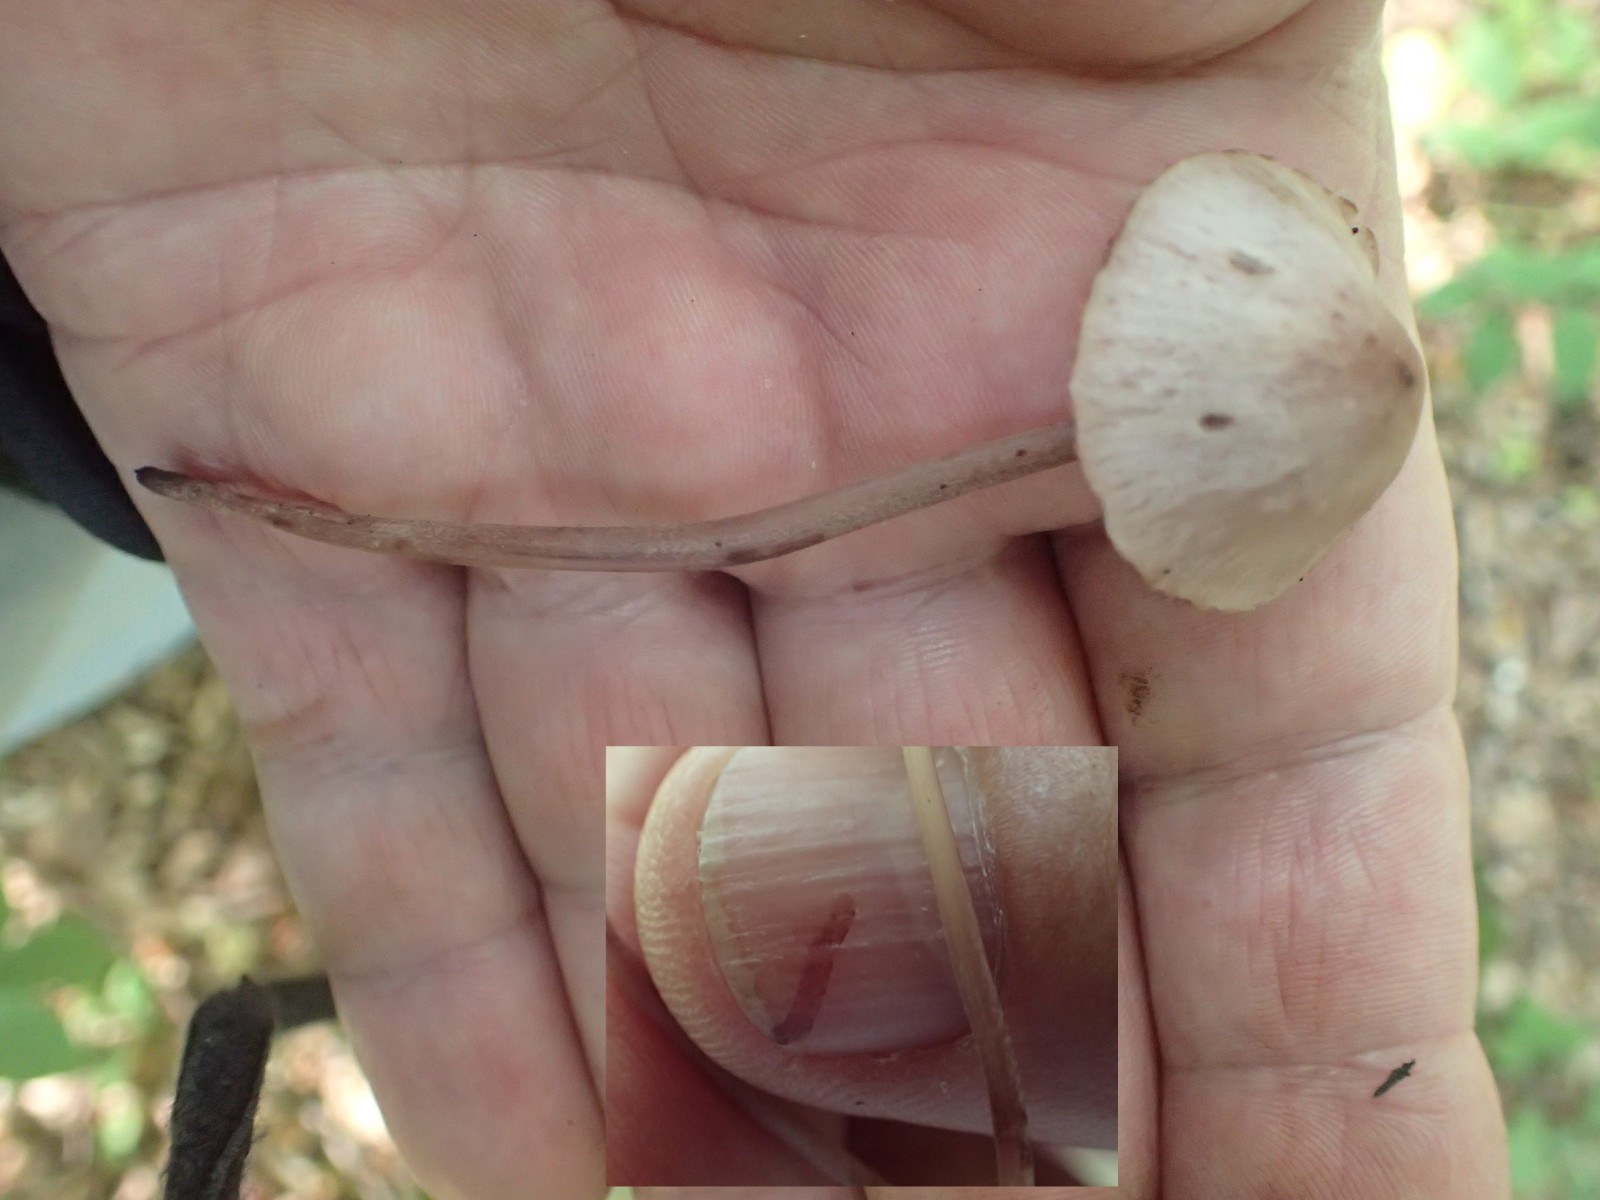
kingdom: Fungi
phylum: Basidiomycota
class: Agaricomycetes
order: Agaricales
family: Mycenaceae
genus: Mycena
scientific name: Mycena haematopus
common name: blødende huesvamp
